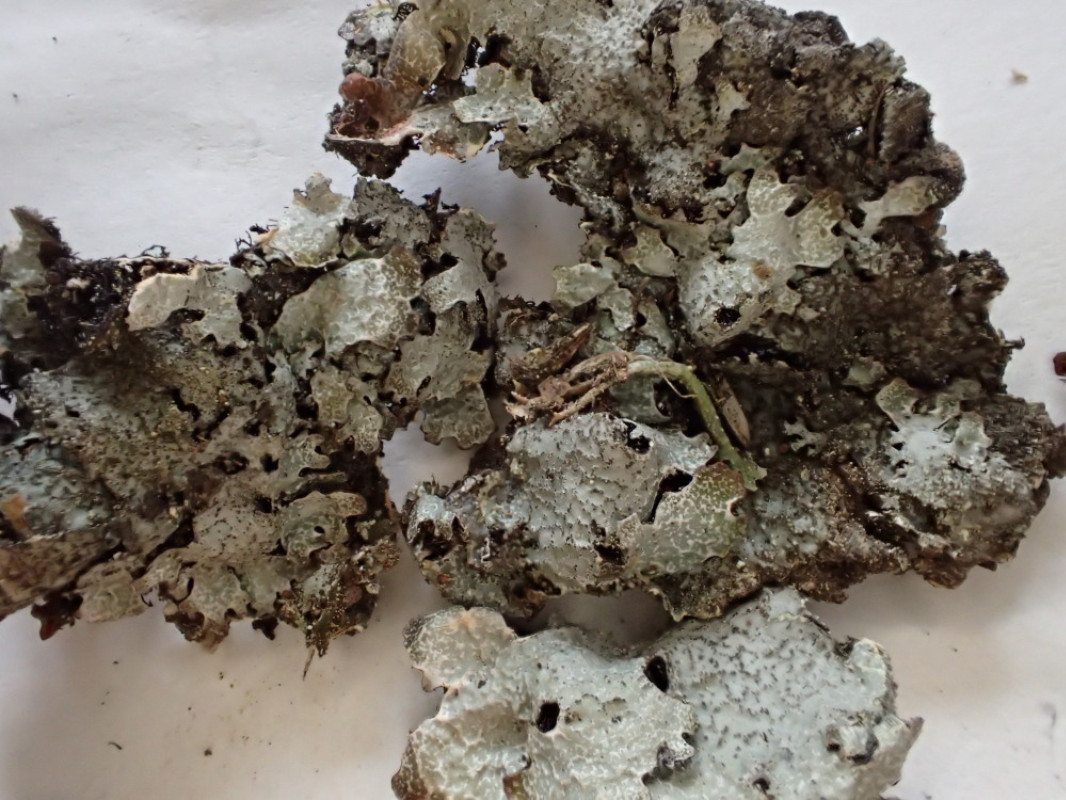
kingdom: Fungi
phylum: Ascomycota
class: Lecanoromycetes
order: Lecanorales
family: Parmeliaceae
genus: Parmelia
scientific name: Parmelia saxatilis
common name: farve-skållav
